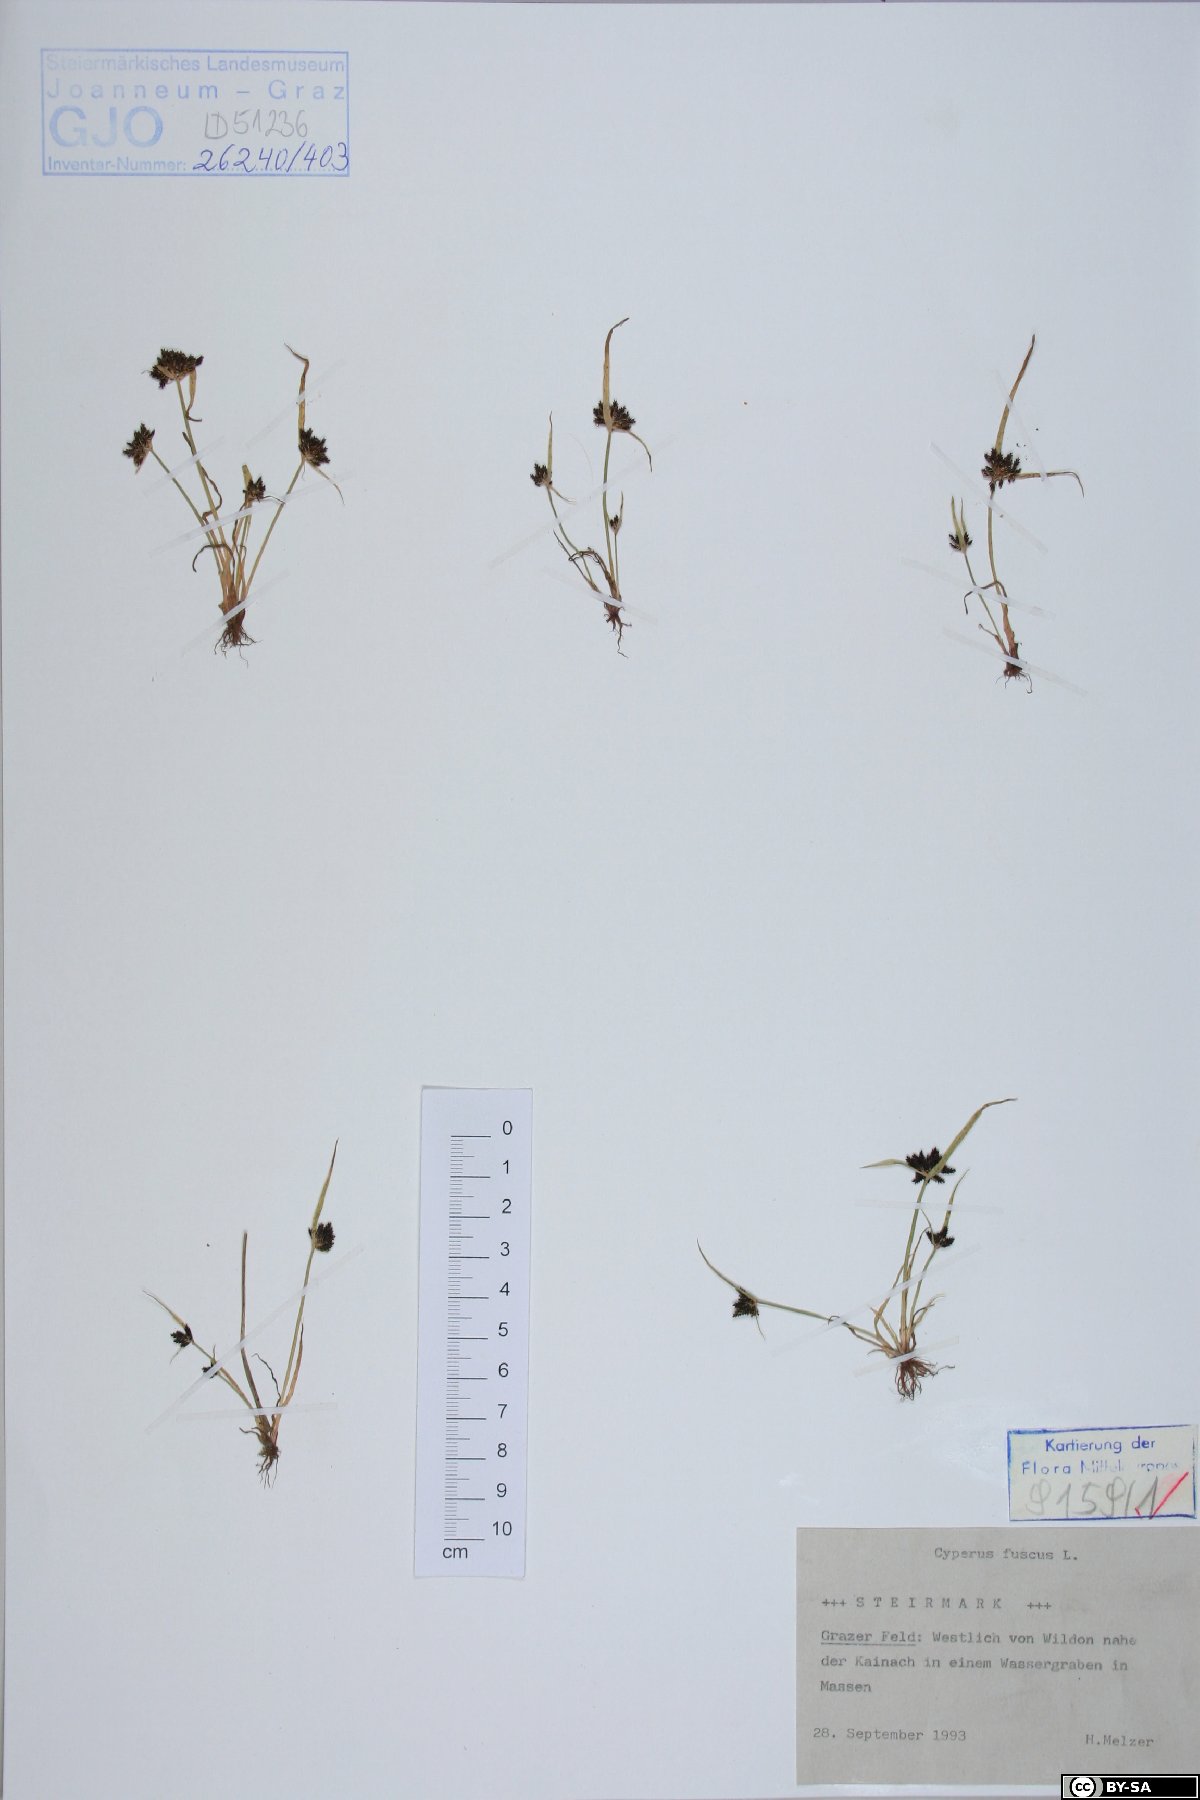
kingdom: Plantae
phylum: Tracheophyta
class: Liliopsida
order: Poales
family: Cyperaceae
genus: Cyperus
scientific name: Cyperus fuscus
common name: Brown galingale
